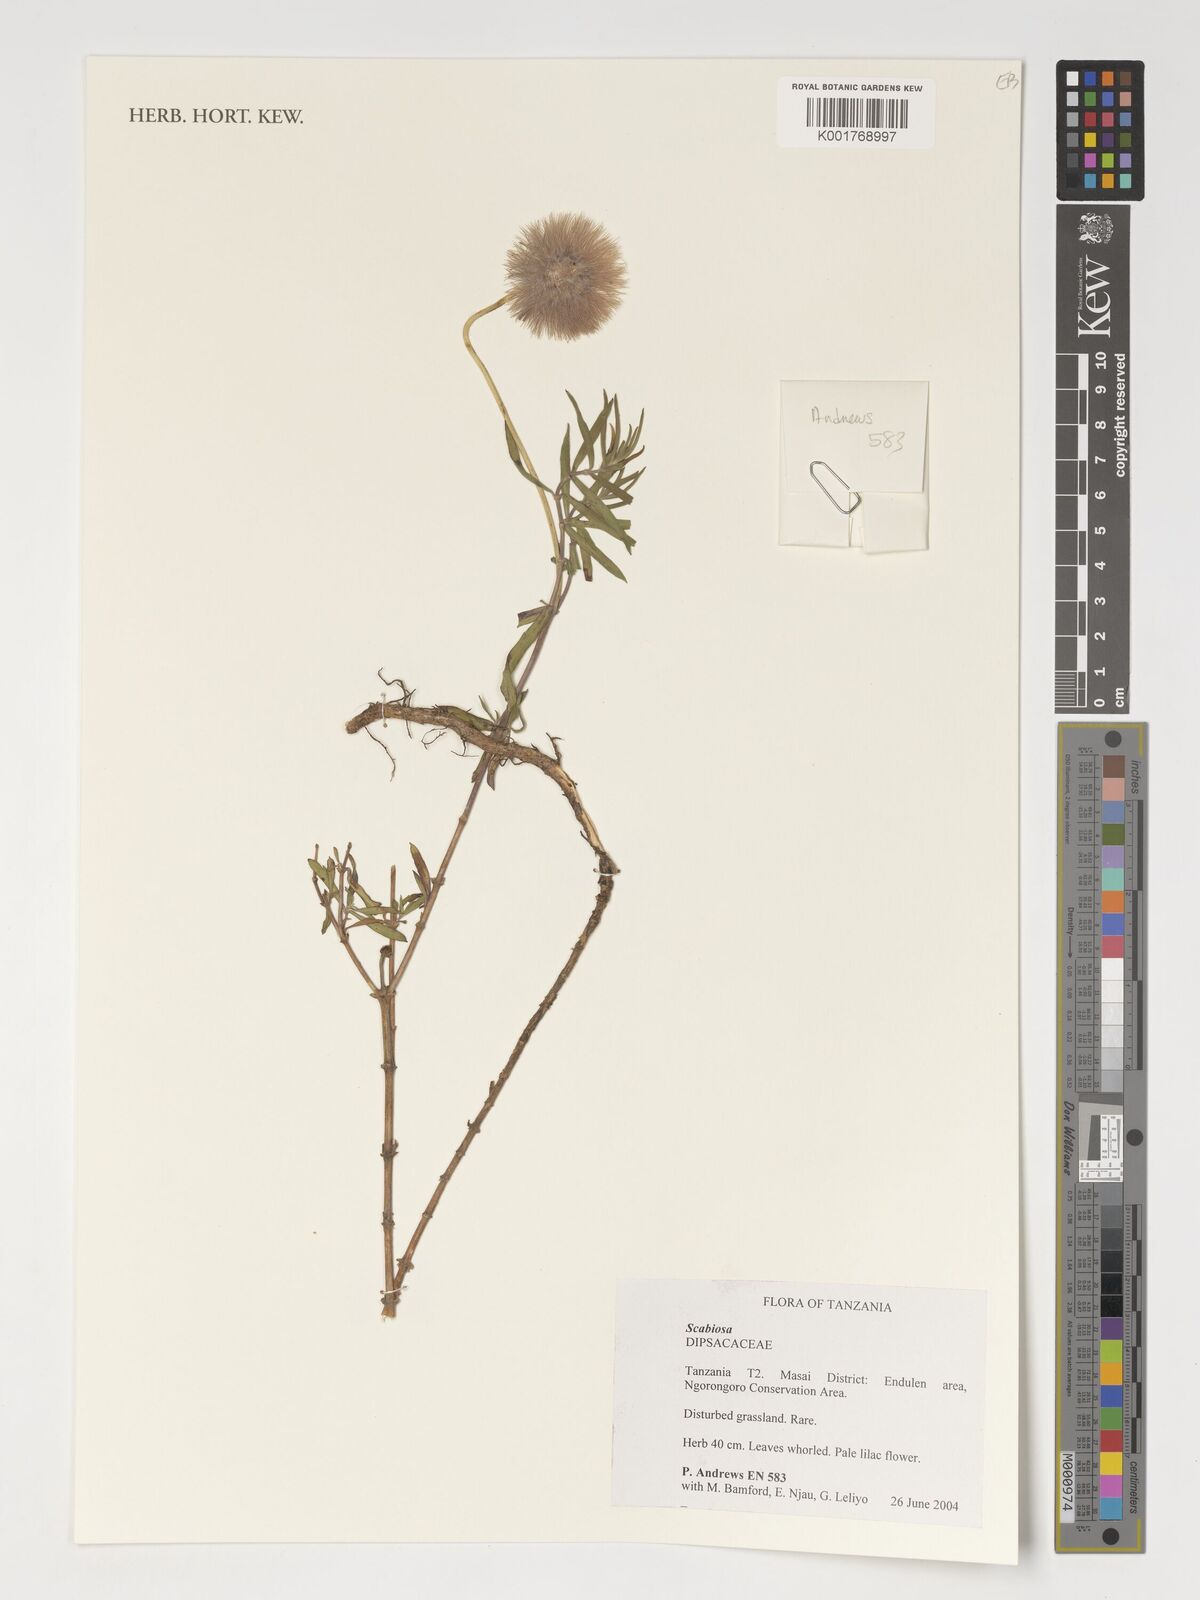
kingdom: Plantae
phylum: Tracheophyta
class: Magnoliopsida
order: Dipsacales
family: Caprifoliaceae
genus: Scabiosa
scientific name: Scabiosa
